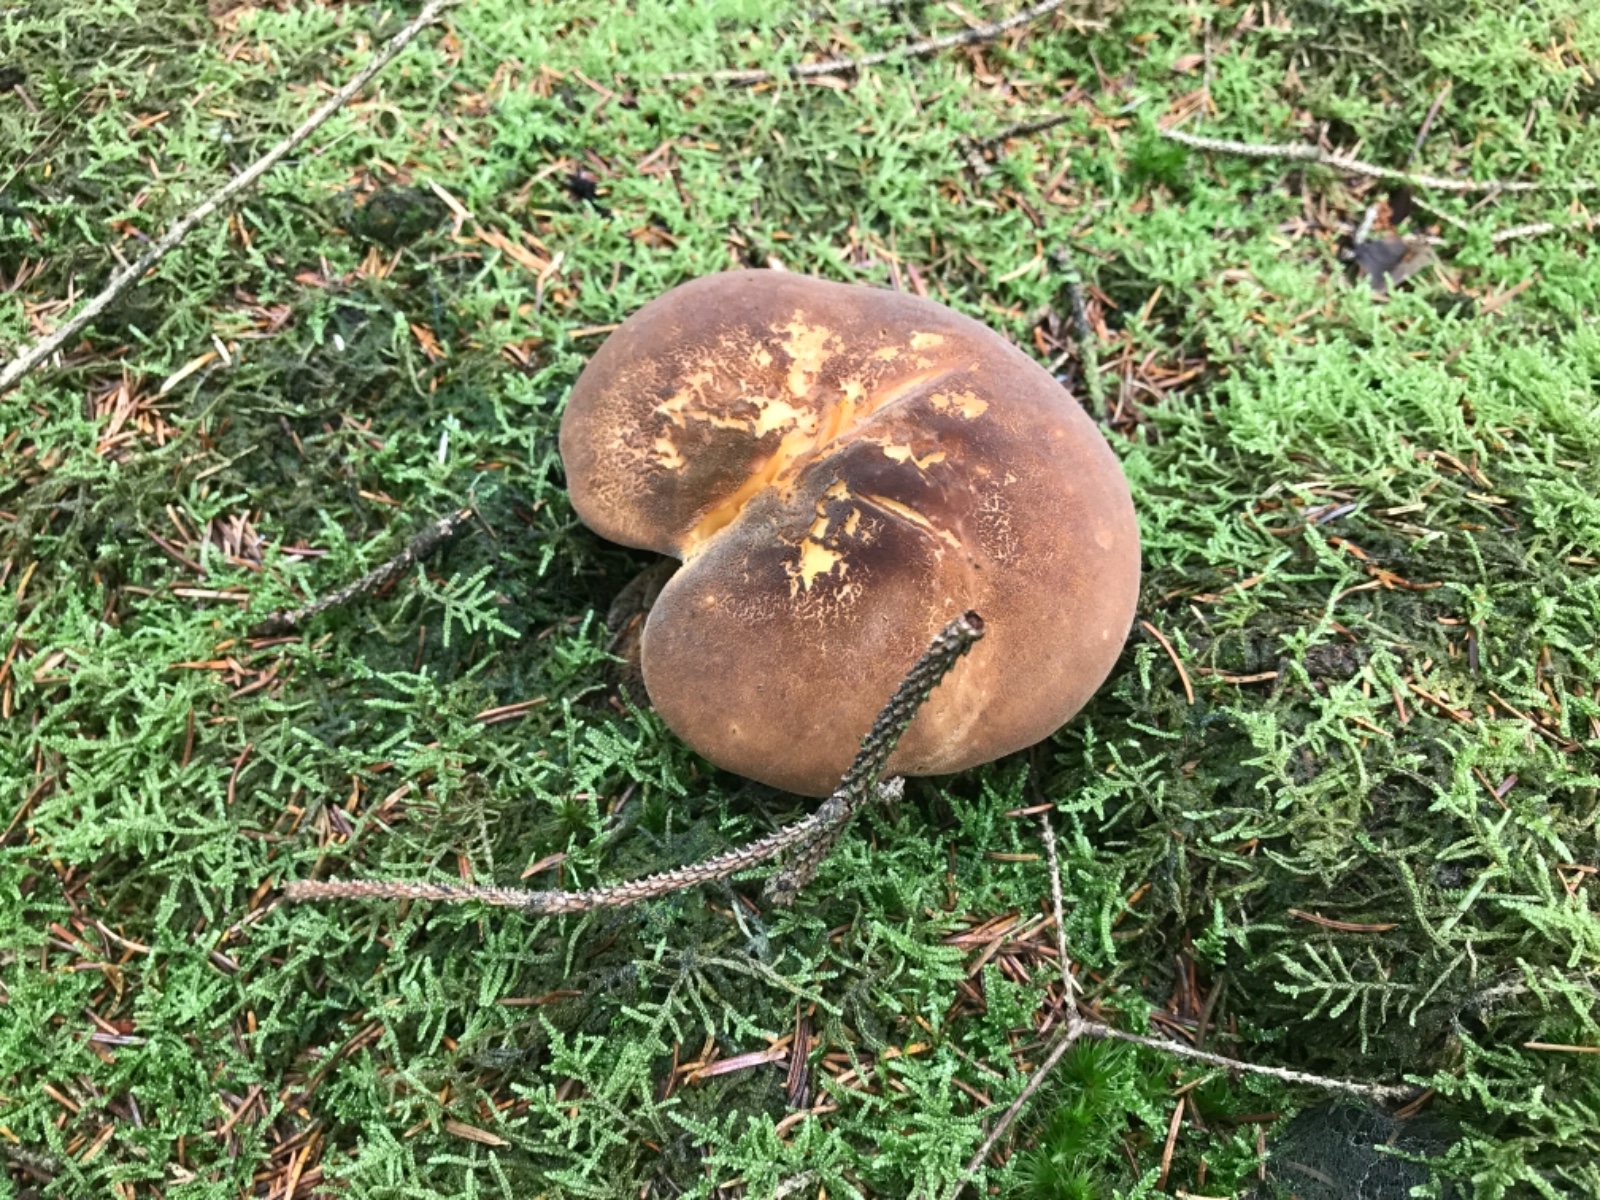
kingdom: Fungi
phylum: Basidiomycota
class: Agaricomycetes
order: Boletales
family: Tapinellaceae
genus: Tapinella
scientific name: Tapinella atrotomentosa
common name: sortfiltet viftesvamp
